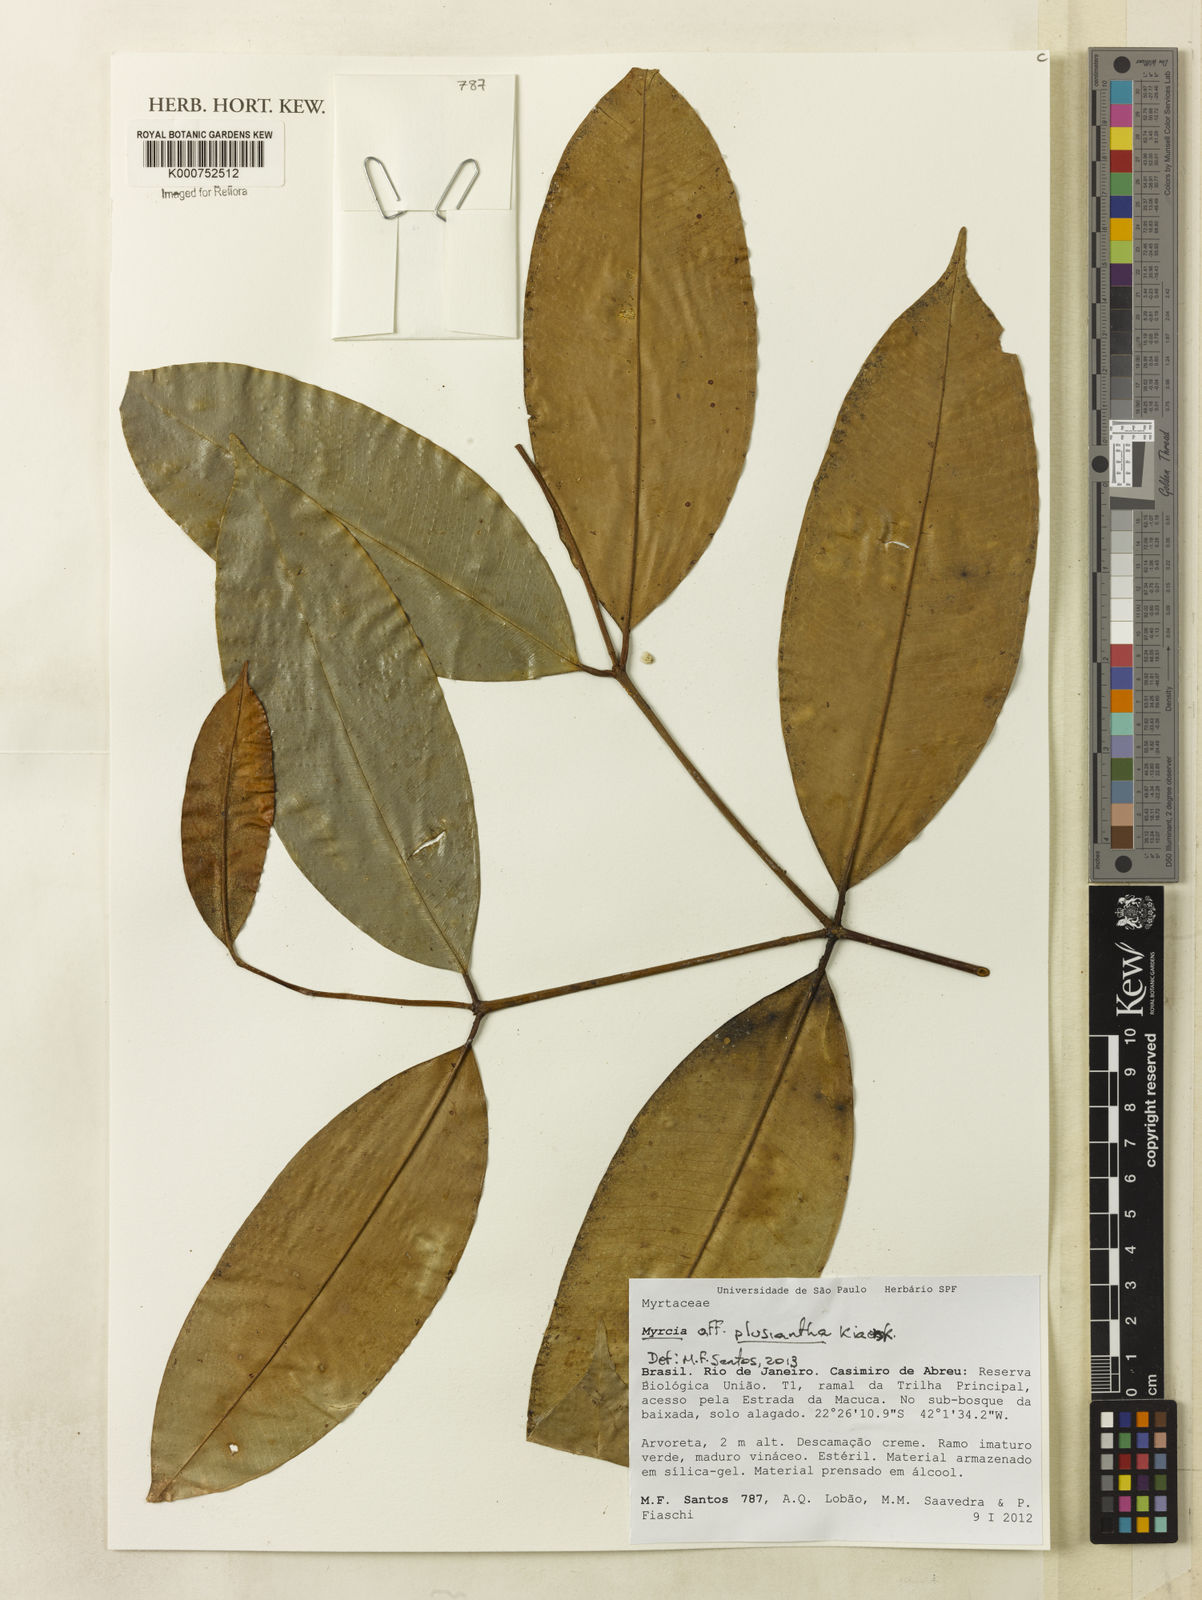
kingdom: Plantae
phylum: Tracheophyta
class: Magnoliopsida
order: Myrtales
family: Myrtaceae
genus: Myrcia
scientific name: Myrcia plusiantha
